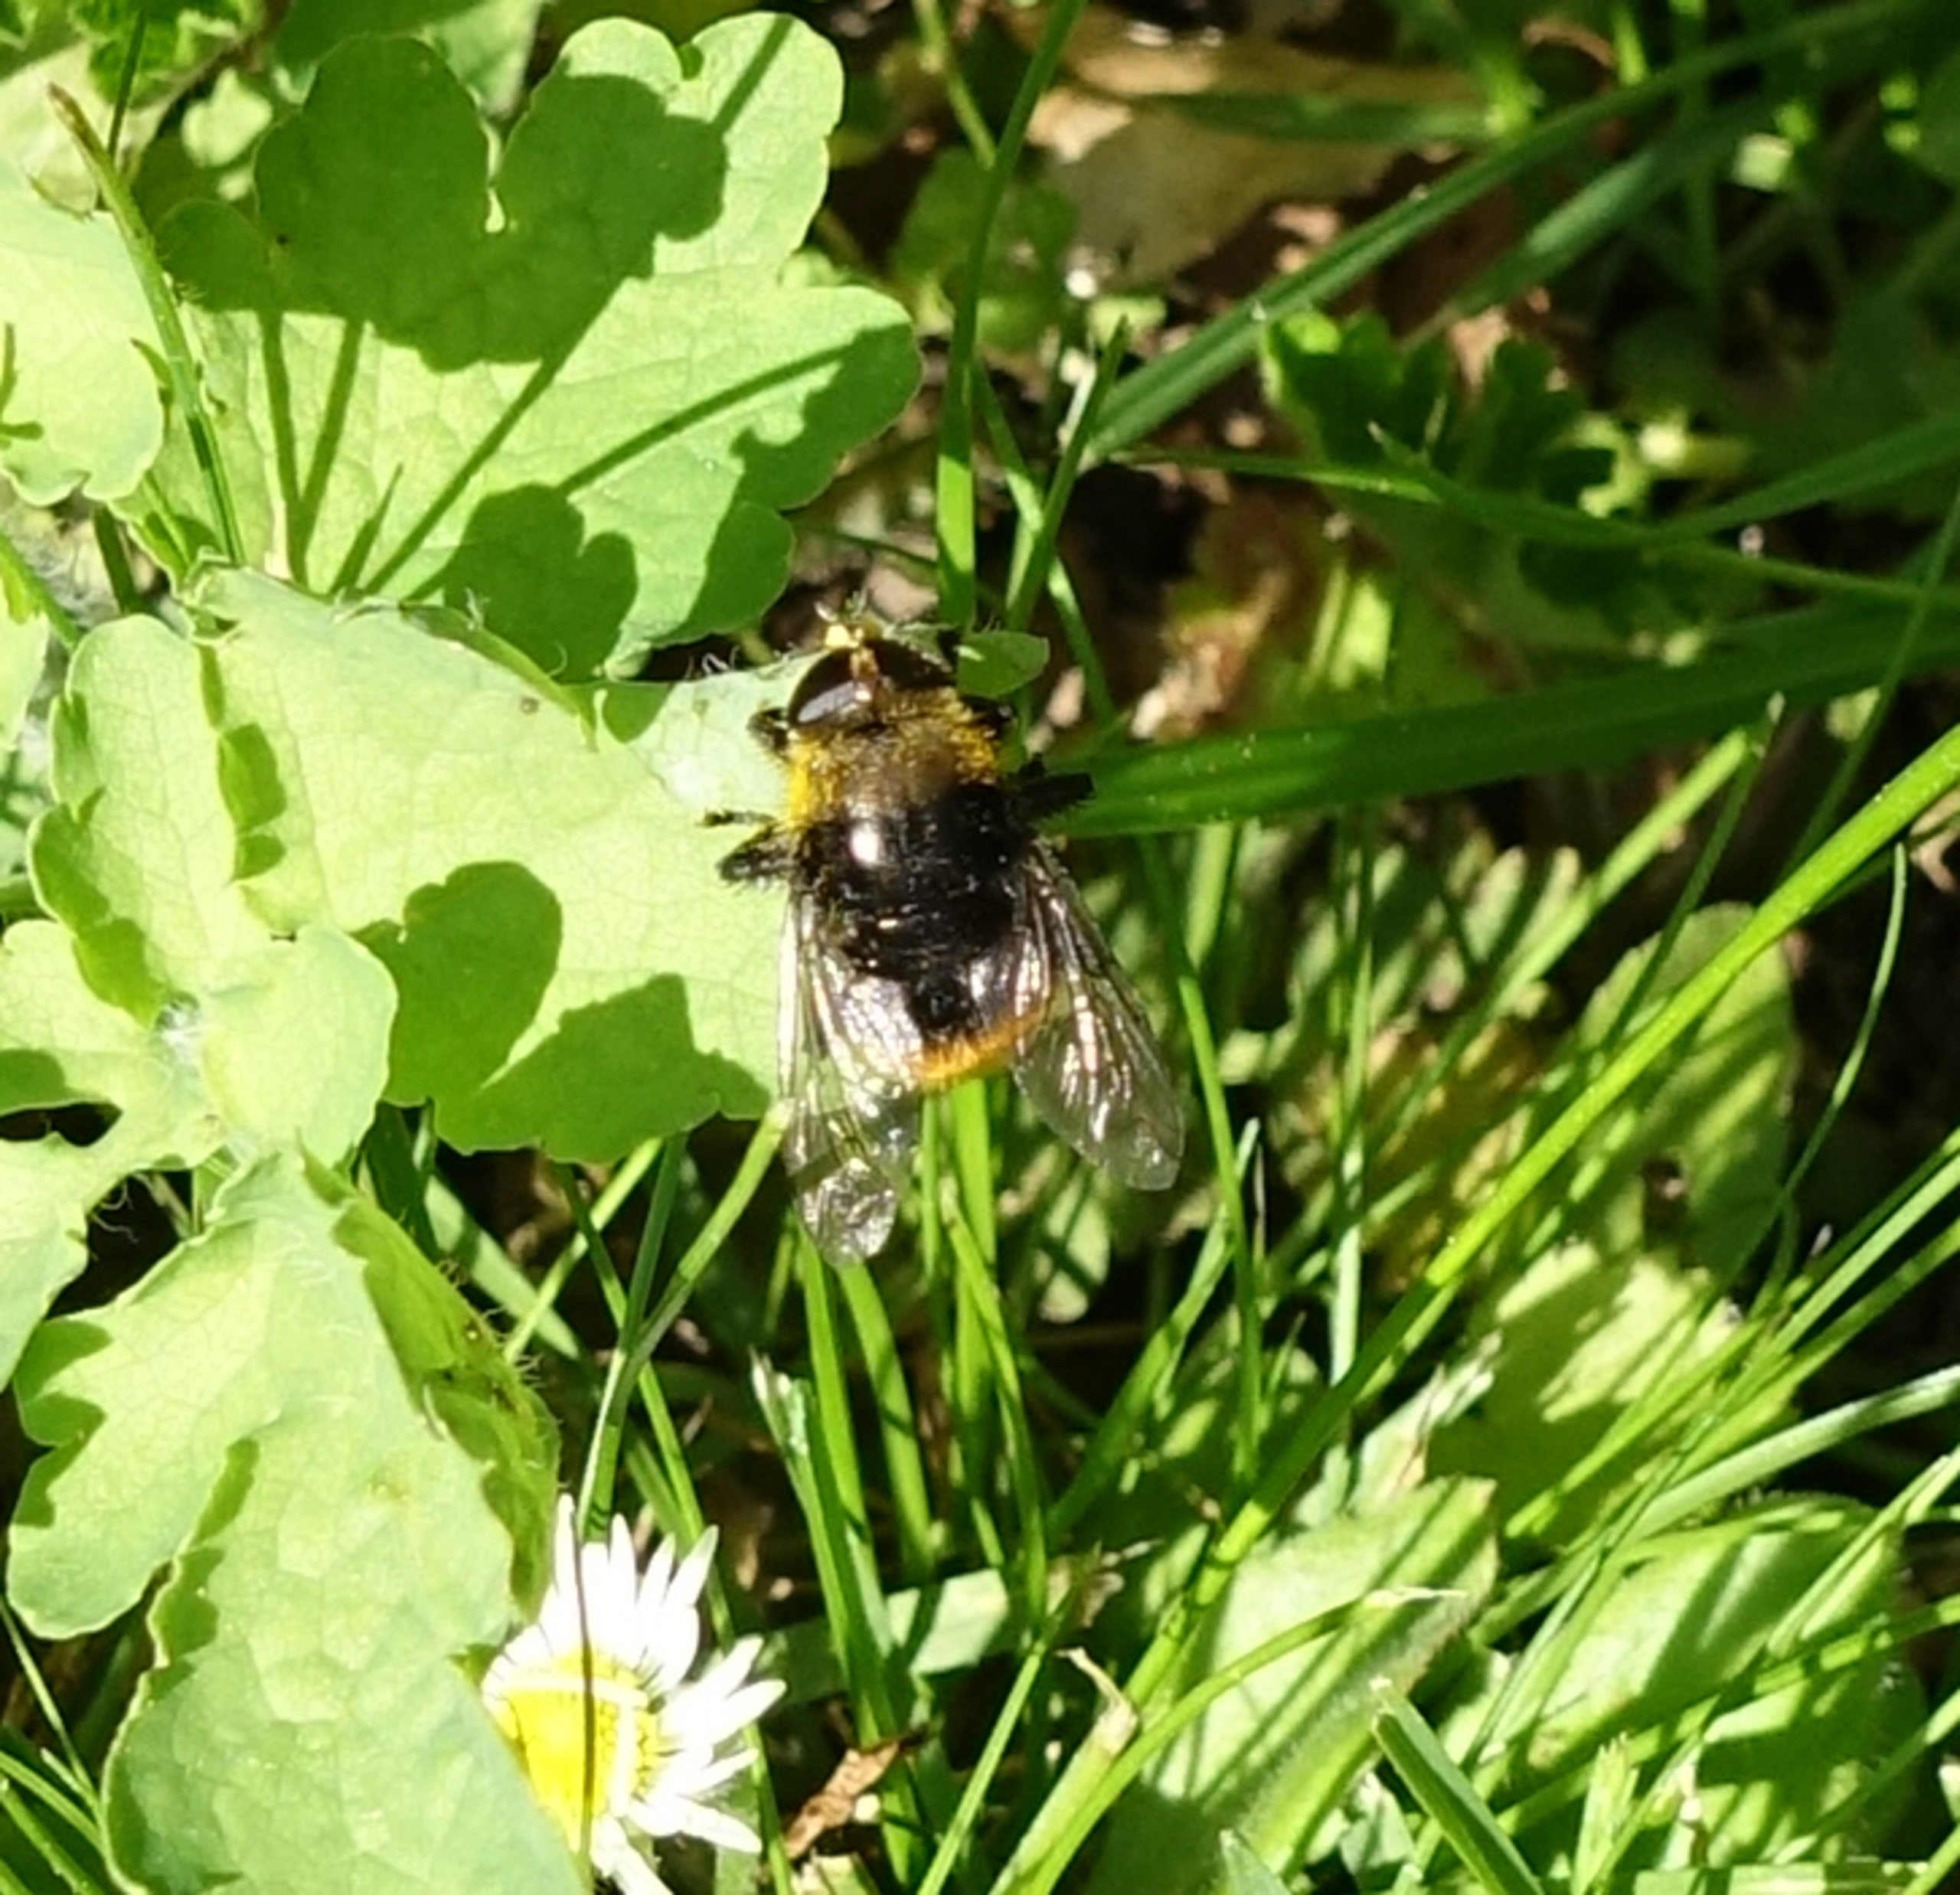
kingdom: Animalia
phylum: Arthropoda
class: Insecta
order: Diptera
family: Syrphidae
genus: Merodon
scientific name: Merodon equestris
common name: Stor narcisflue
